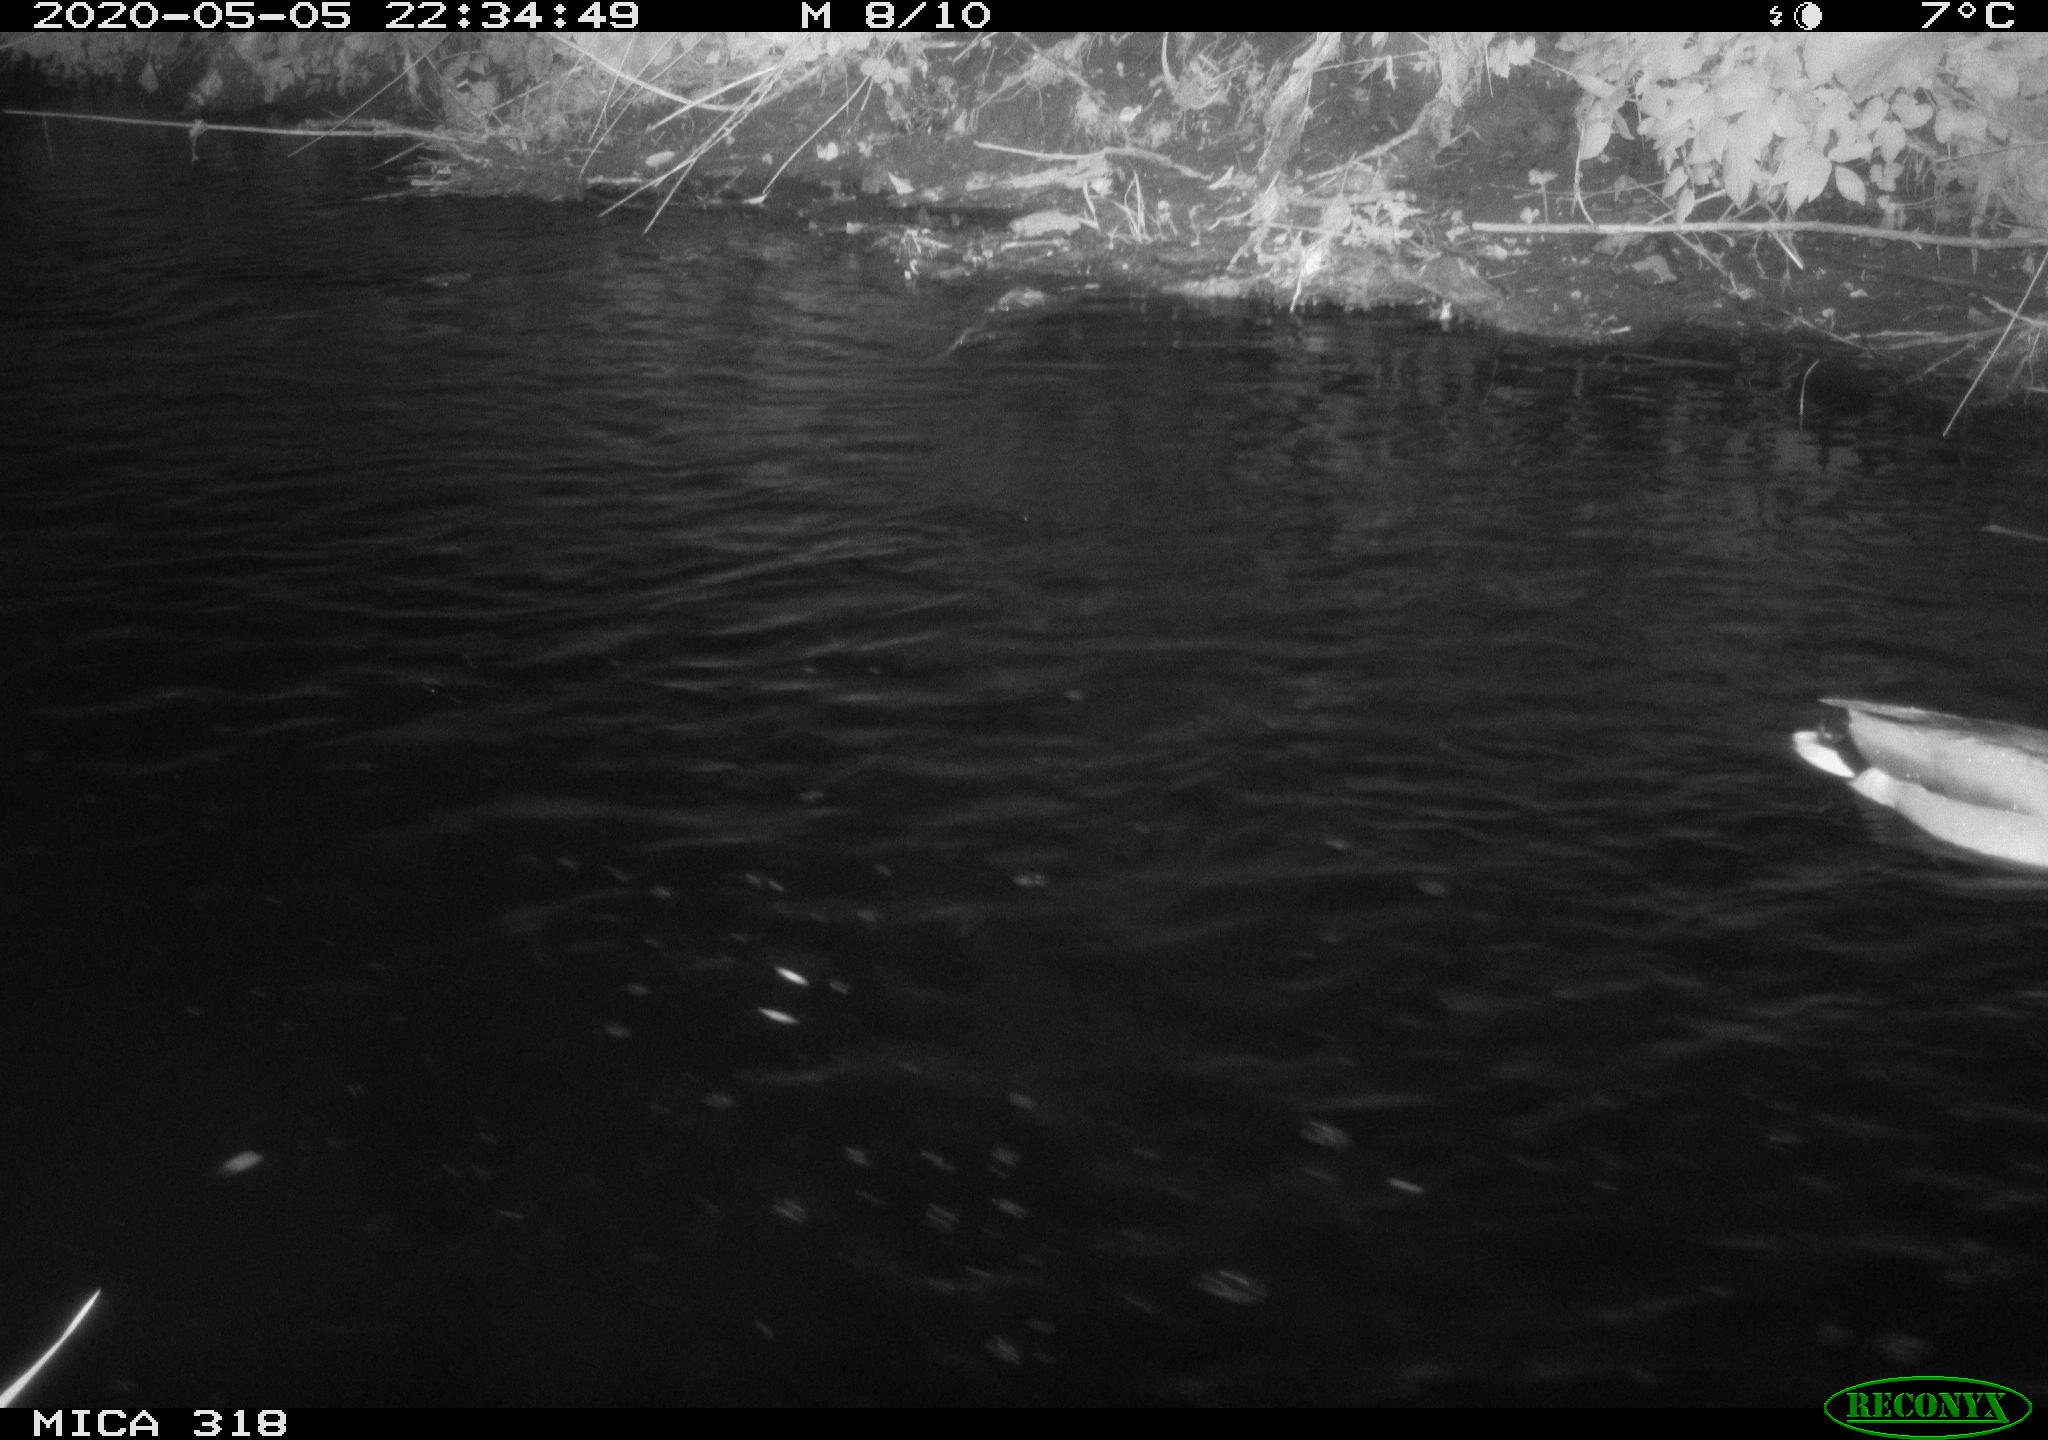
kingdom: Animalia
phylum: Chordata
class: Aves
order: Anseriformes
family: Anatidae
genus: Anas
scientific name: Anas platyrhynchos
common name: Mallard
